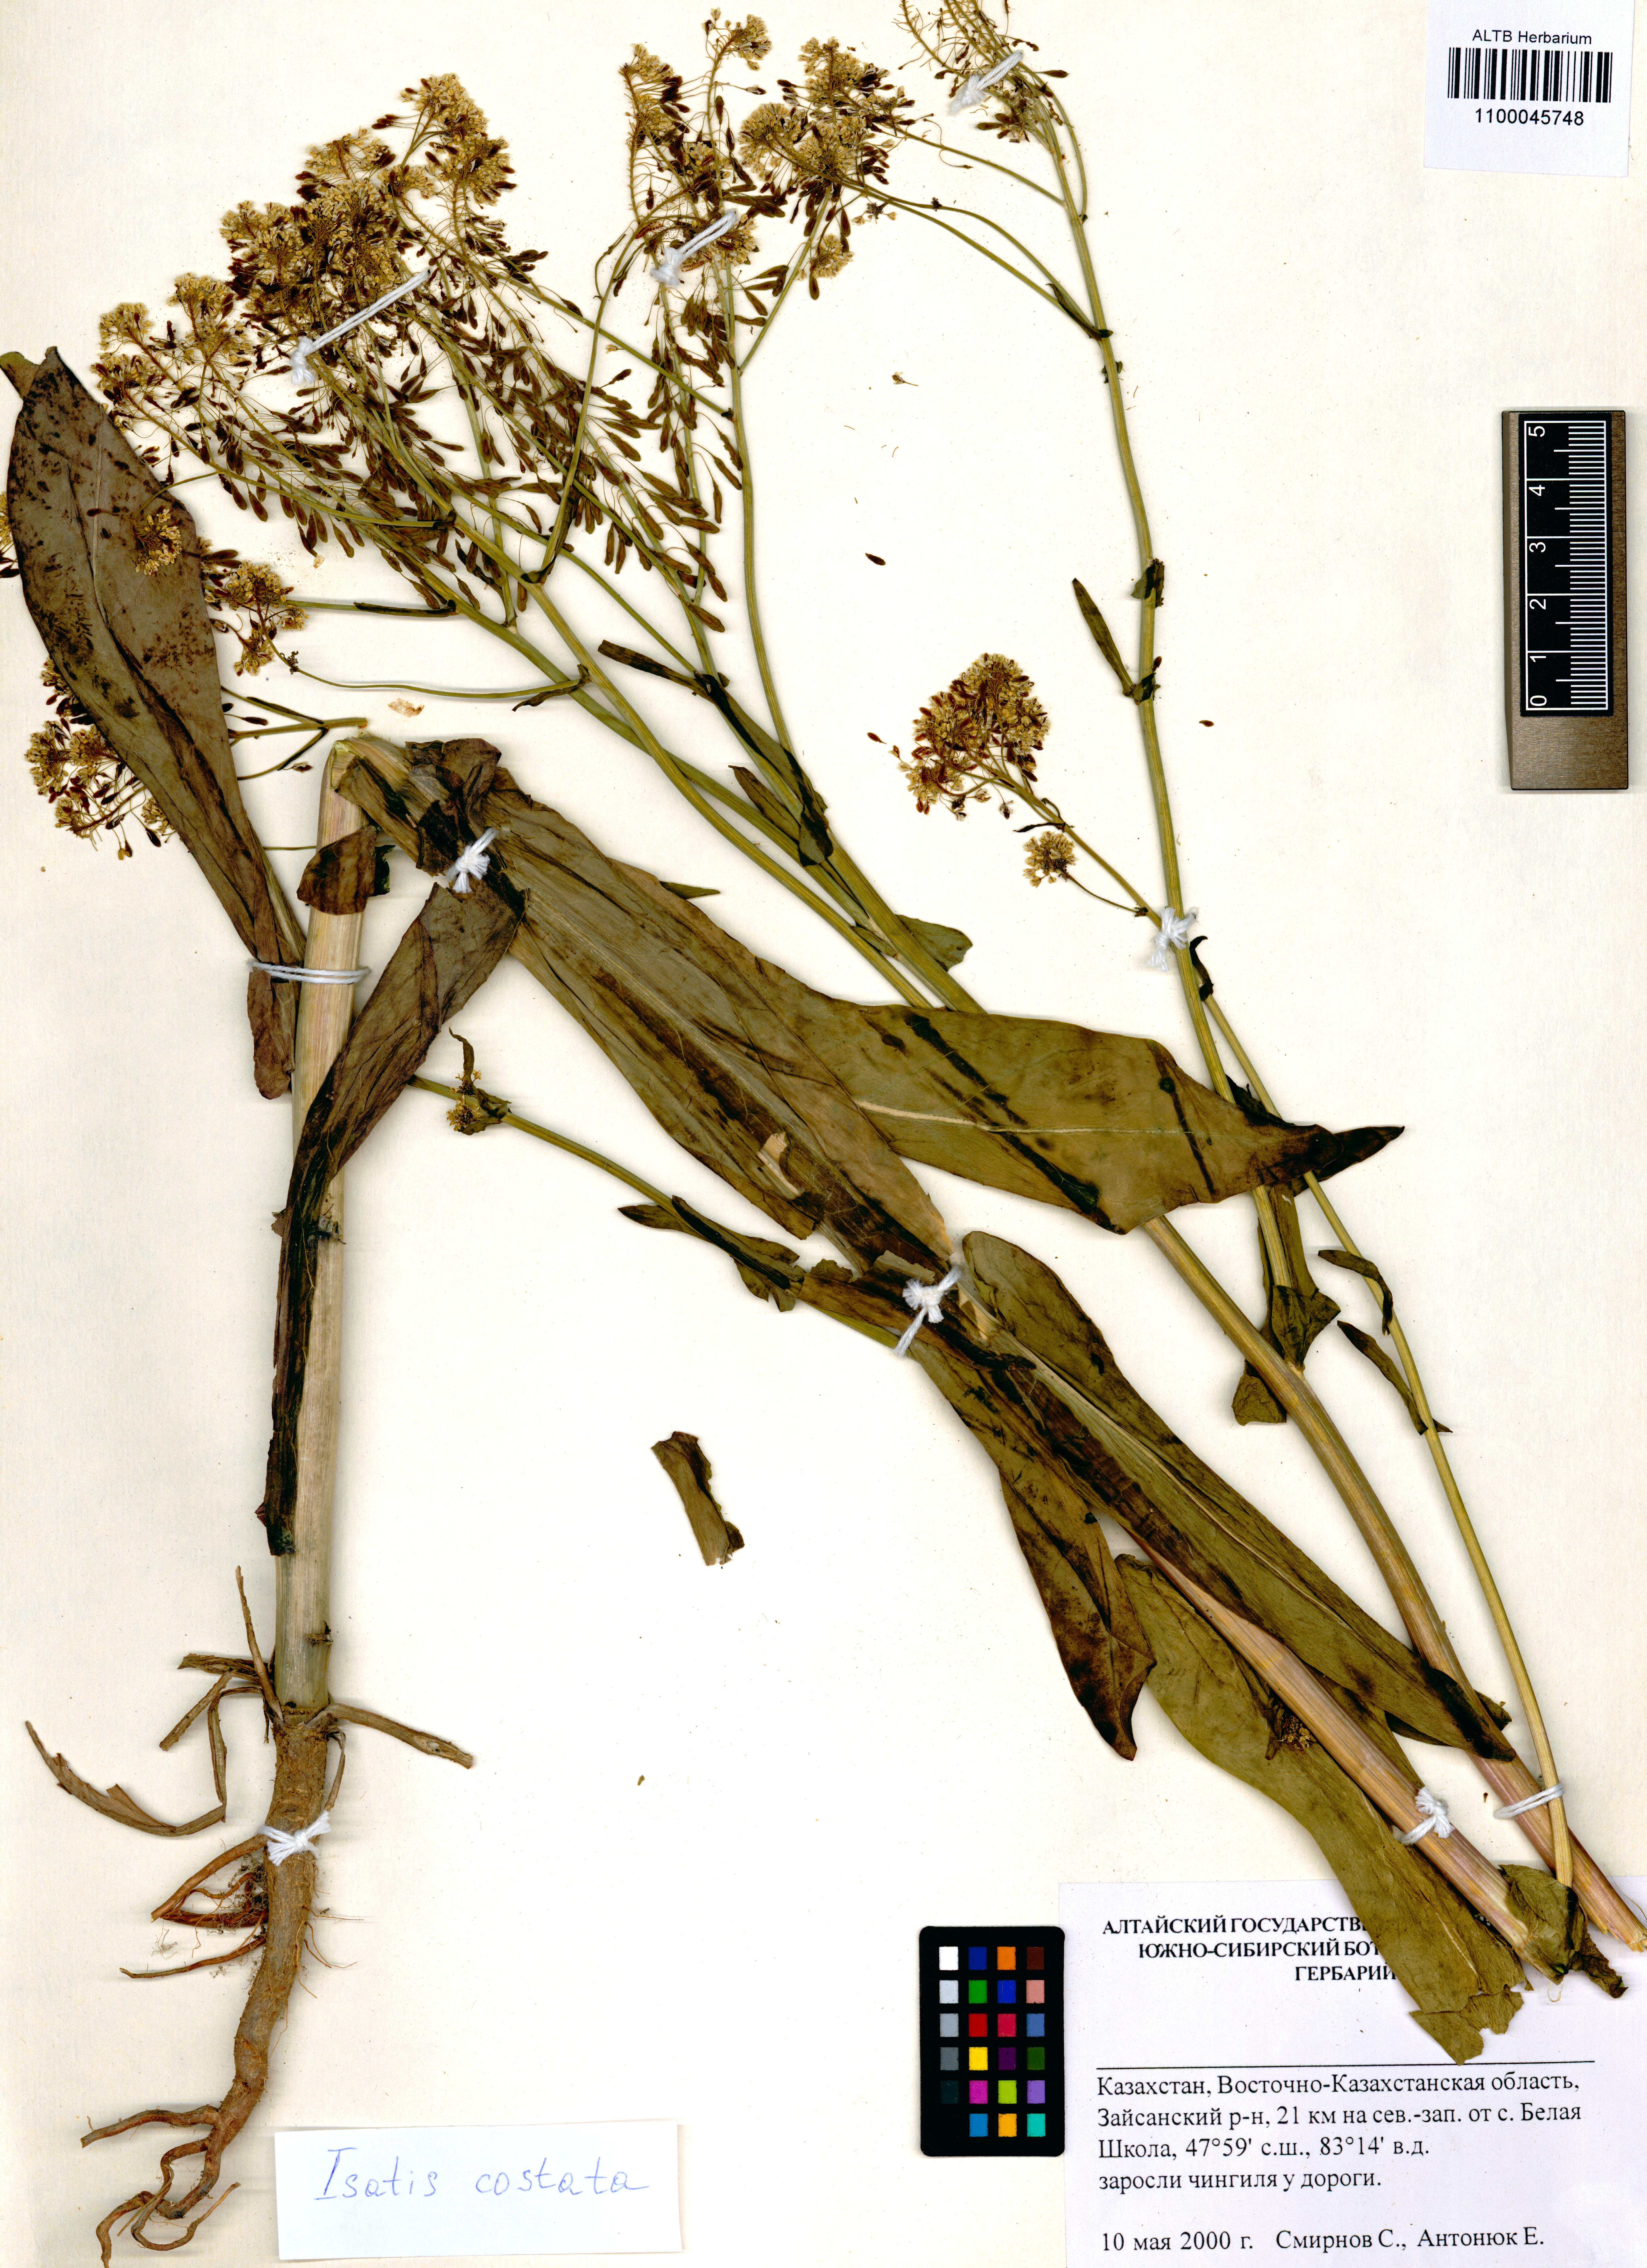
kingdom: Plantae
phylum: Tracheophyta
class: Magnoliopsida
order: Brassicales
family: Brassicaceae
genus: Isatis
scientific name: Isatis costata
